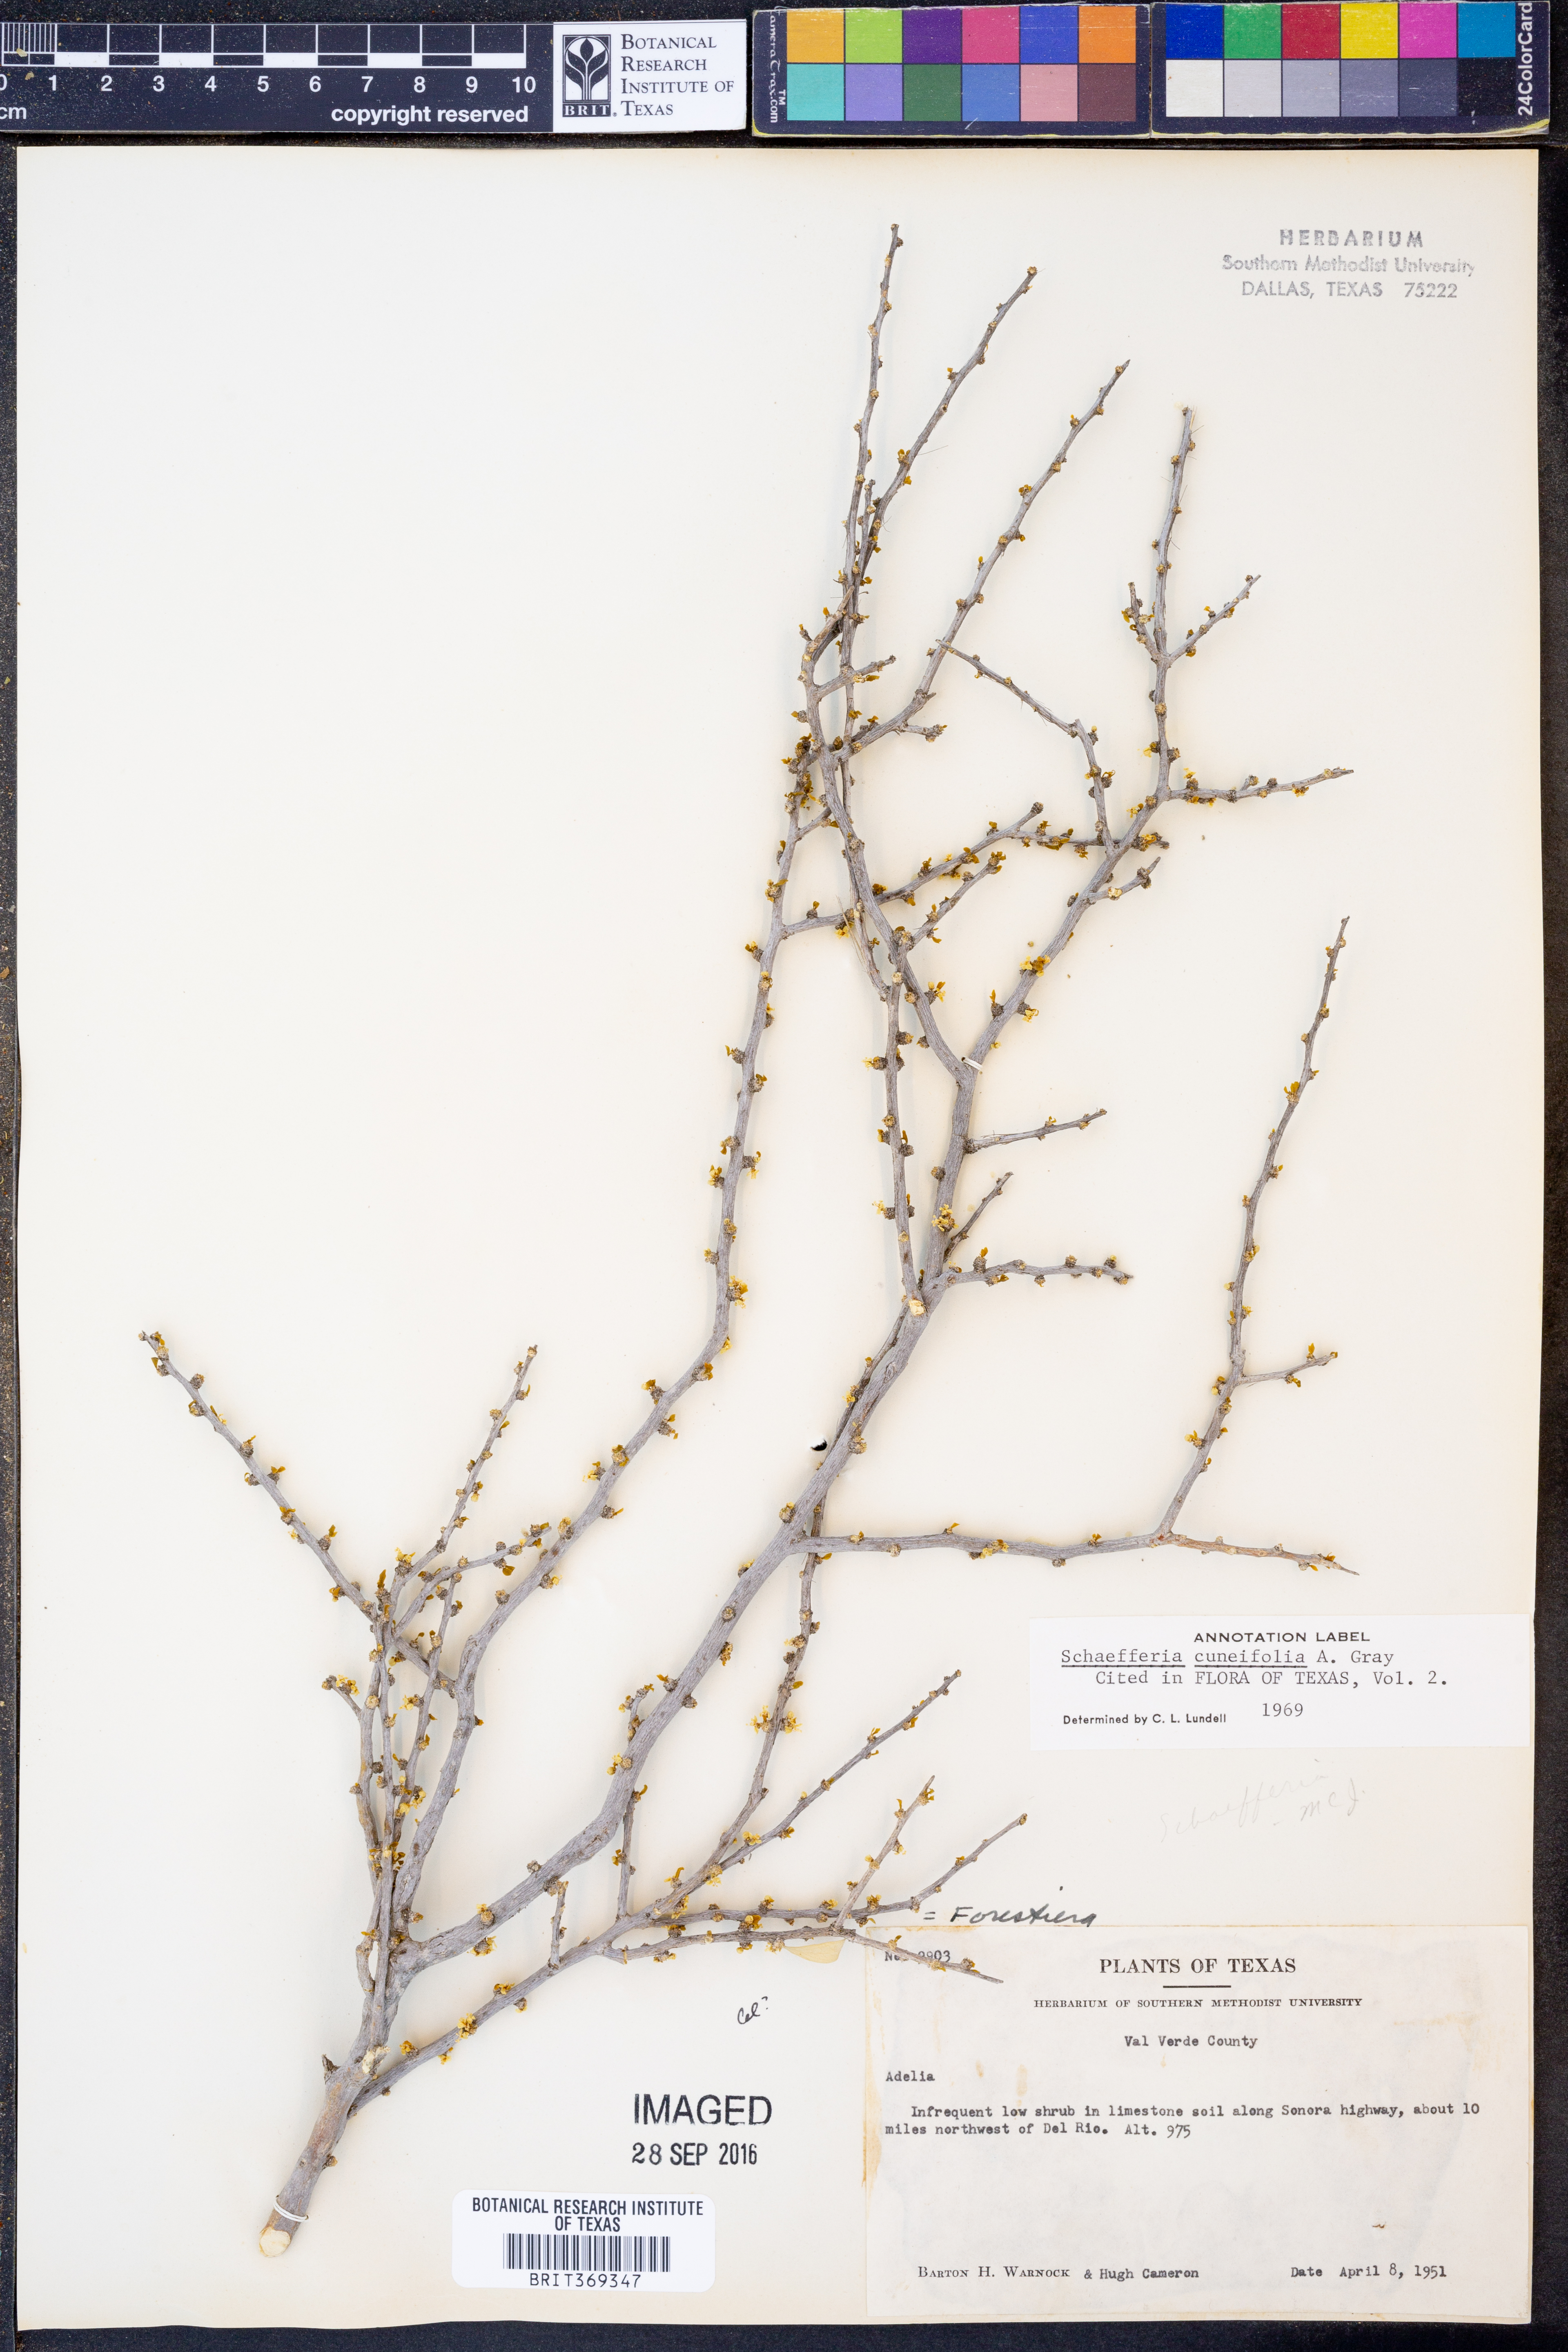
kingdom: Plantae
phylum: Tracheophyta
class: Magnoliopsida
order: Celastrales
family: Celastraceae
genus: Schaefferia
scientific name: Schaefferia cuneifolia
